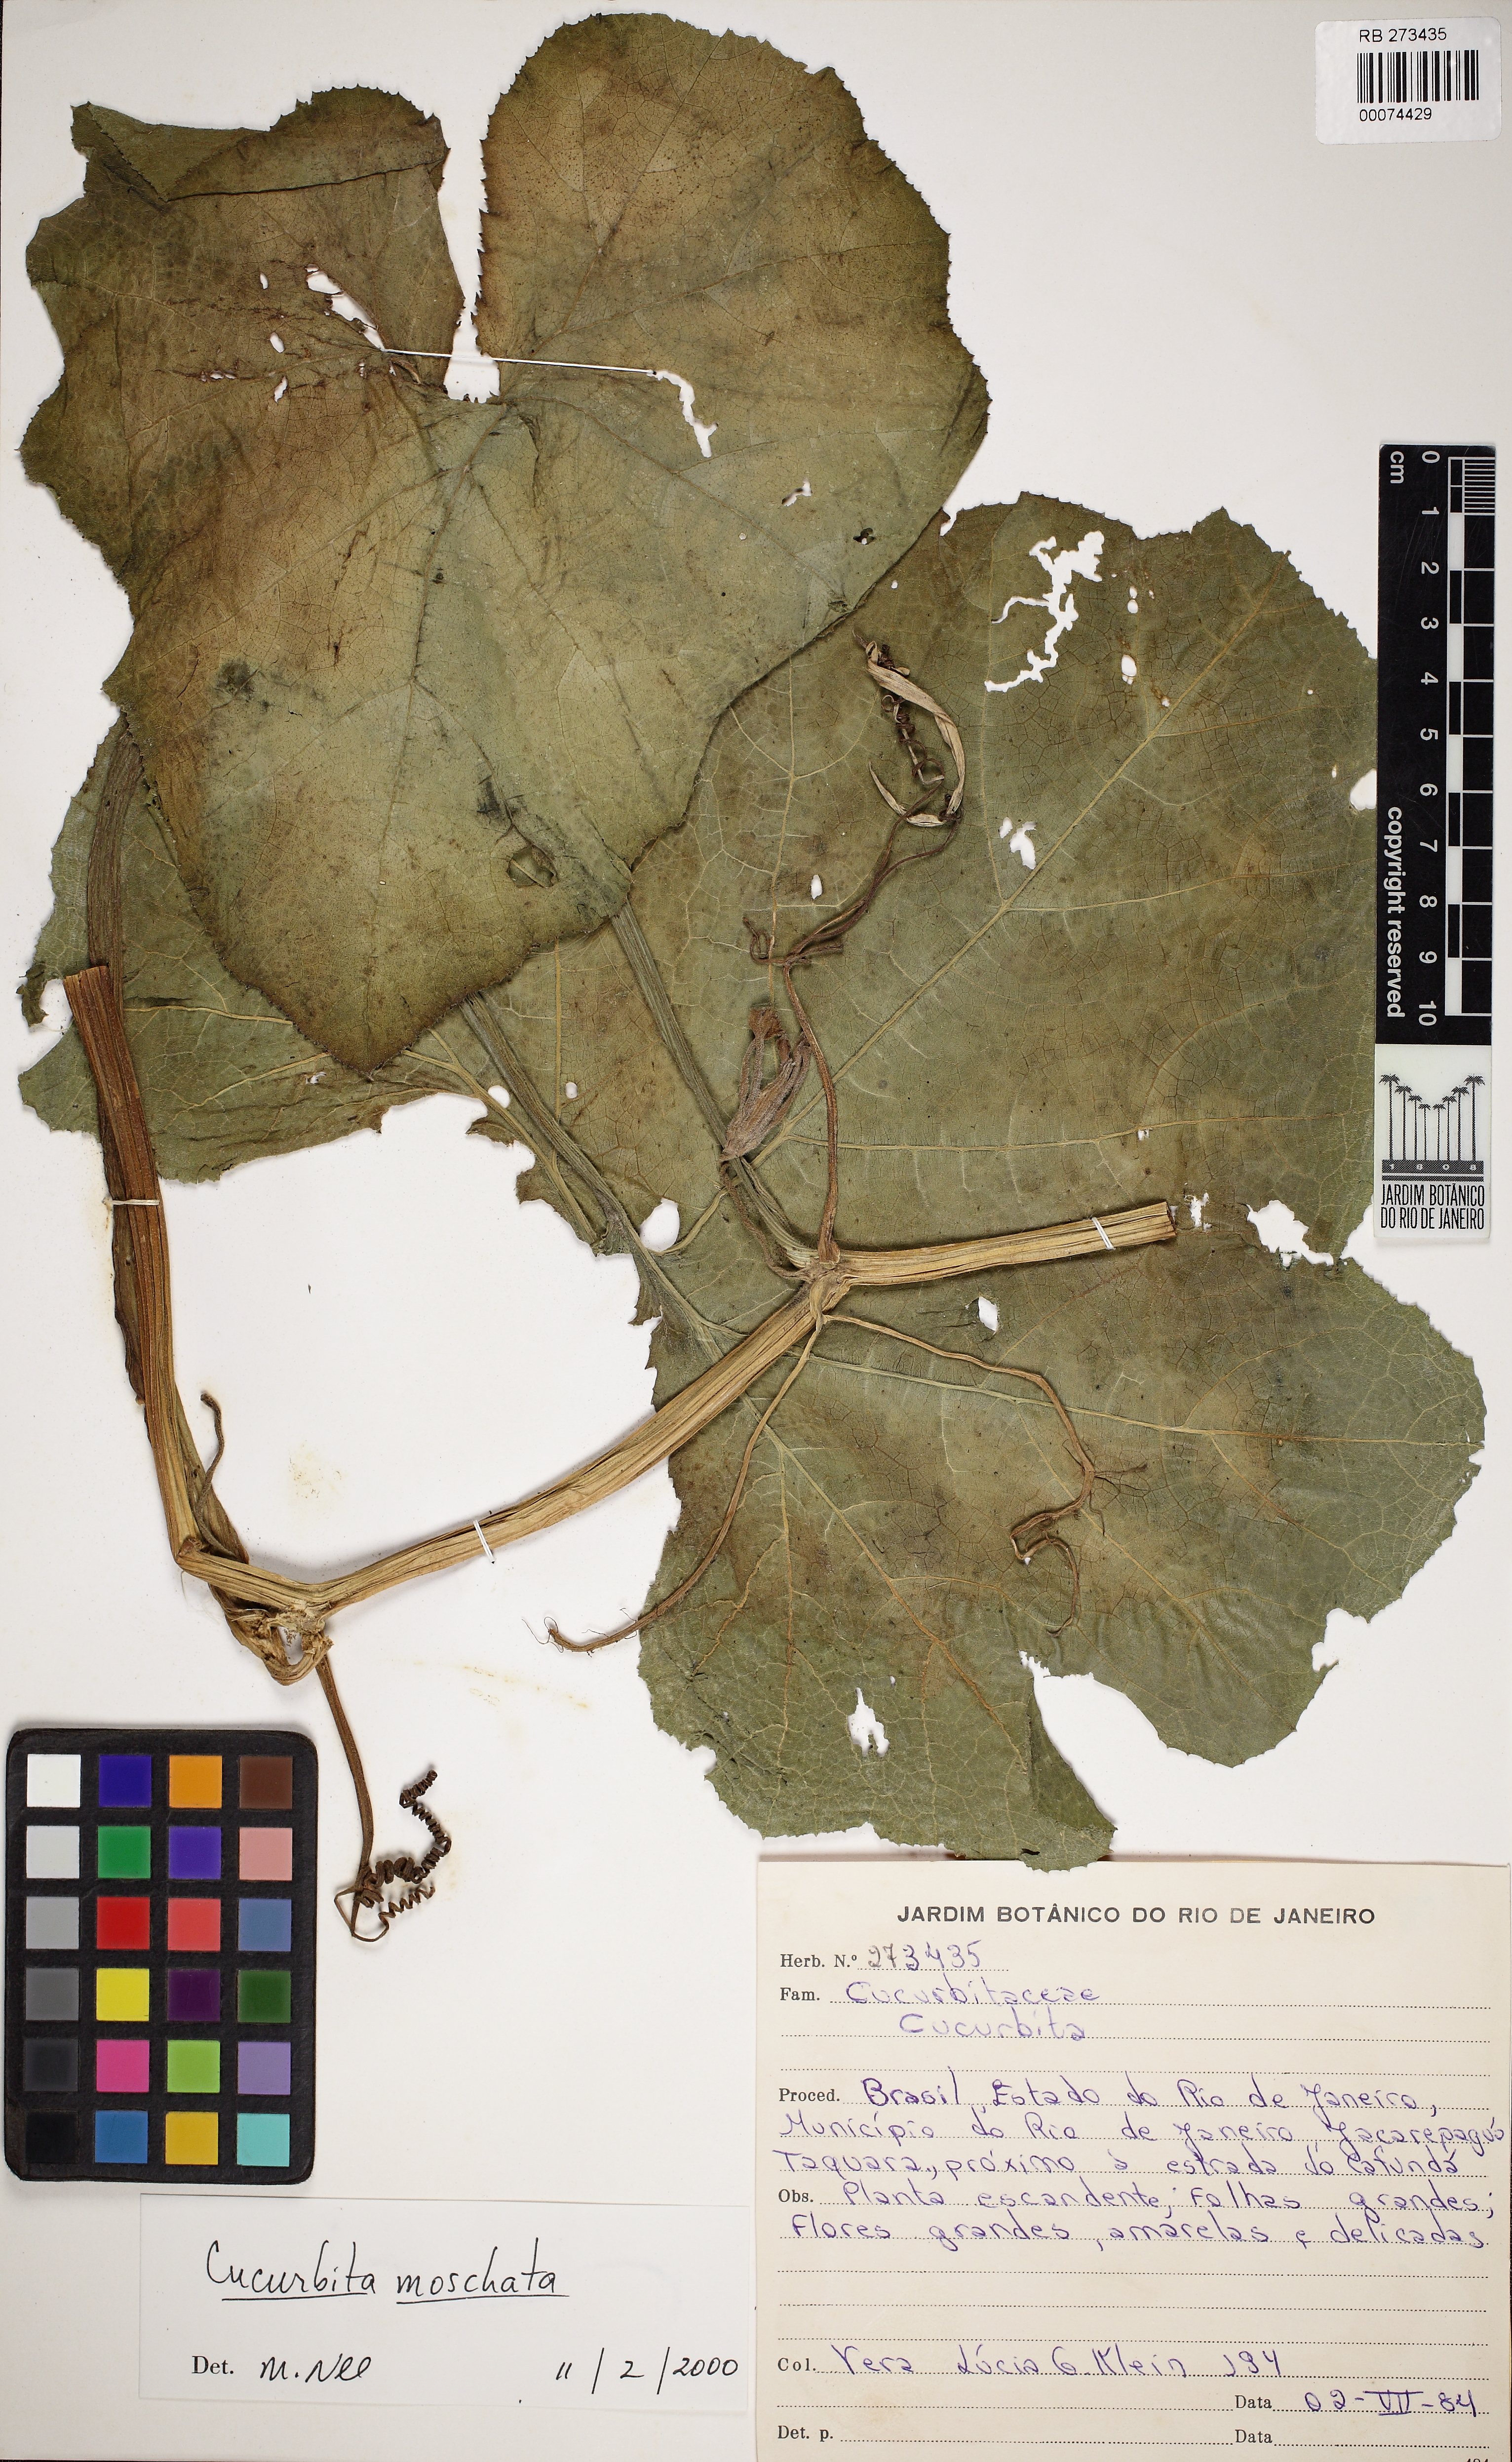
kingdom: Plantae
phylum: Tracheophyta
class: Magnoliopsida
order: Cucurbitales
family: Cucurbitaceae
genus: Cucurbita
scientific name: Cucurbita
